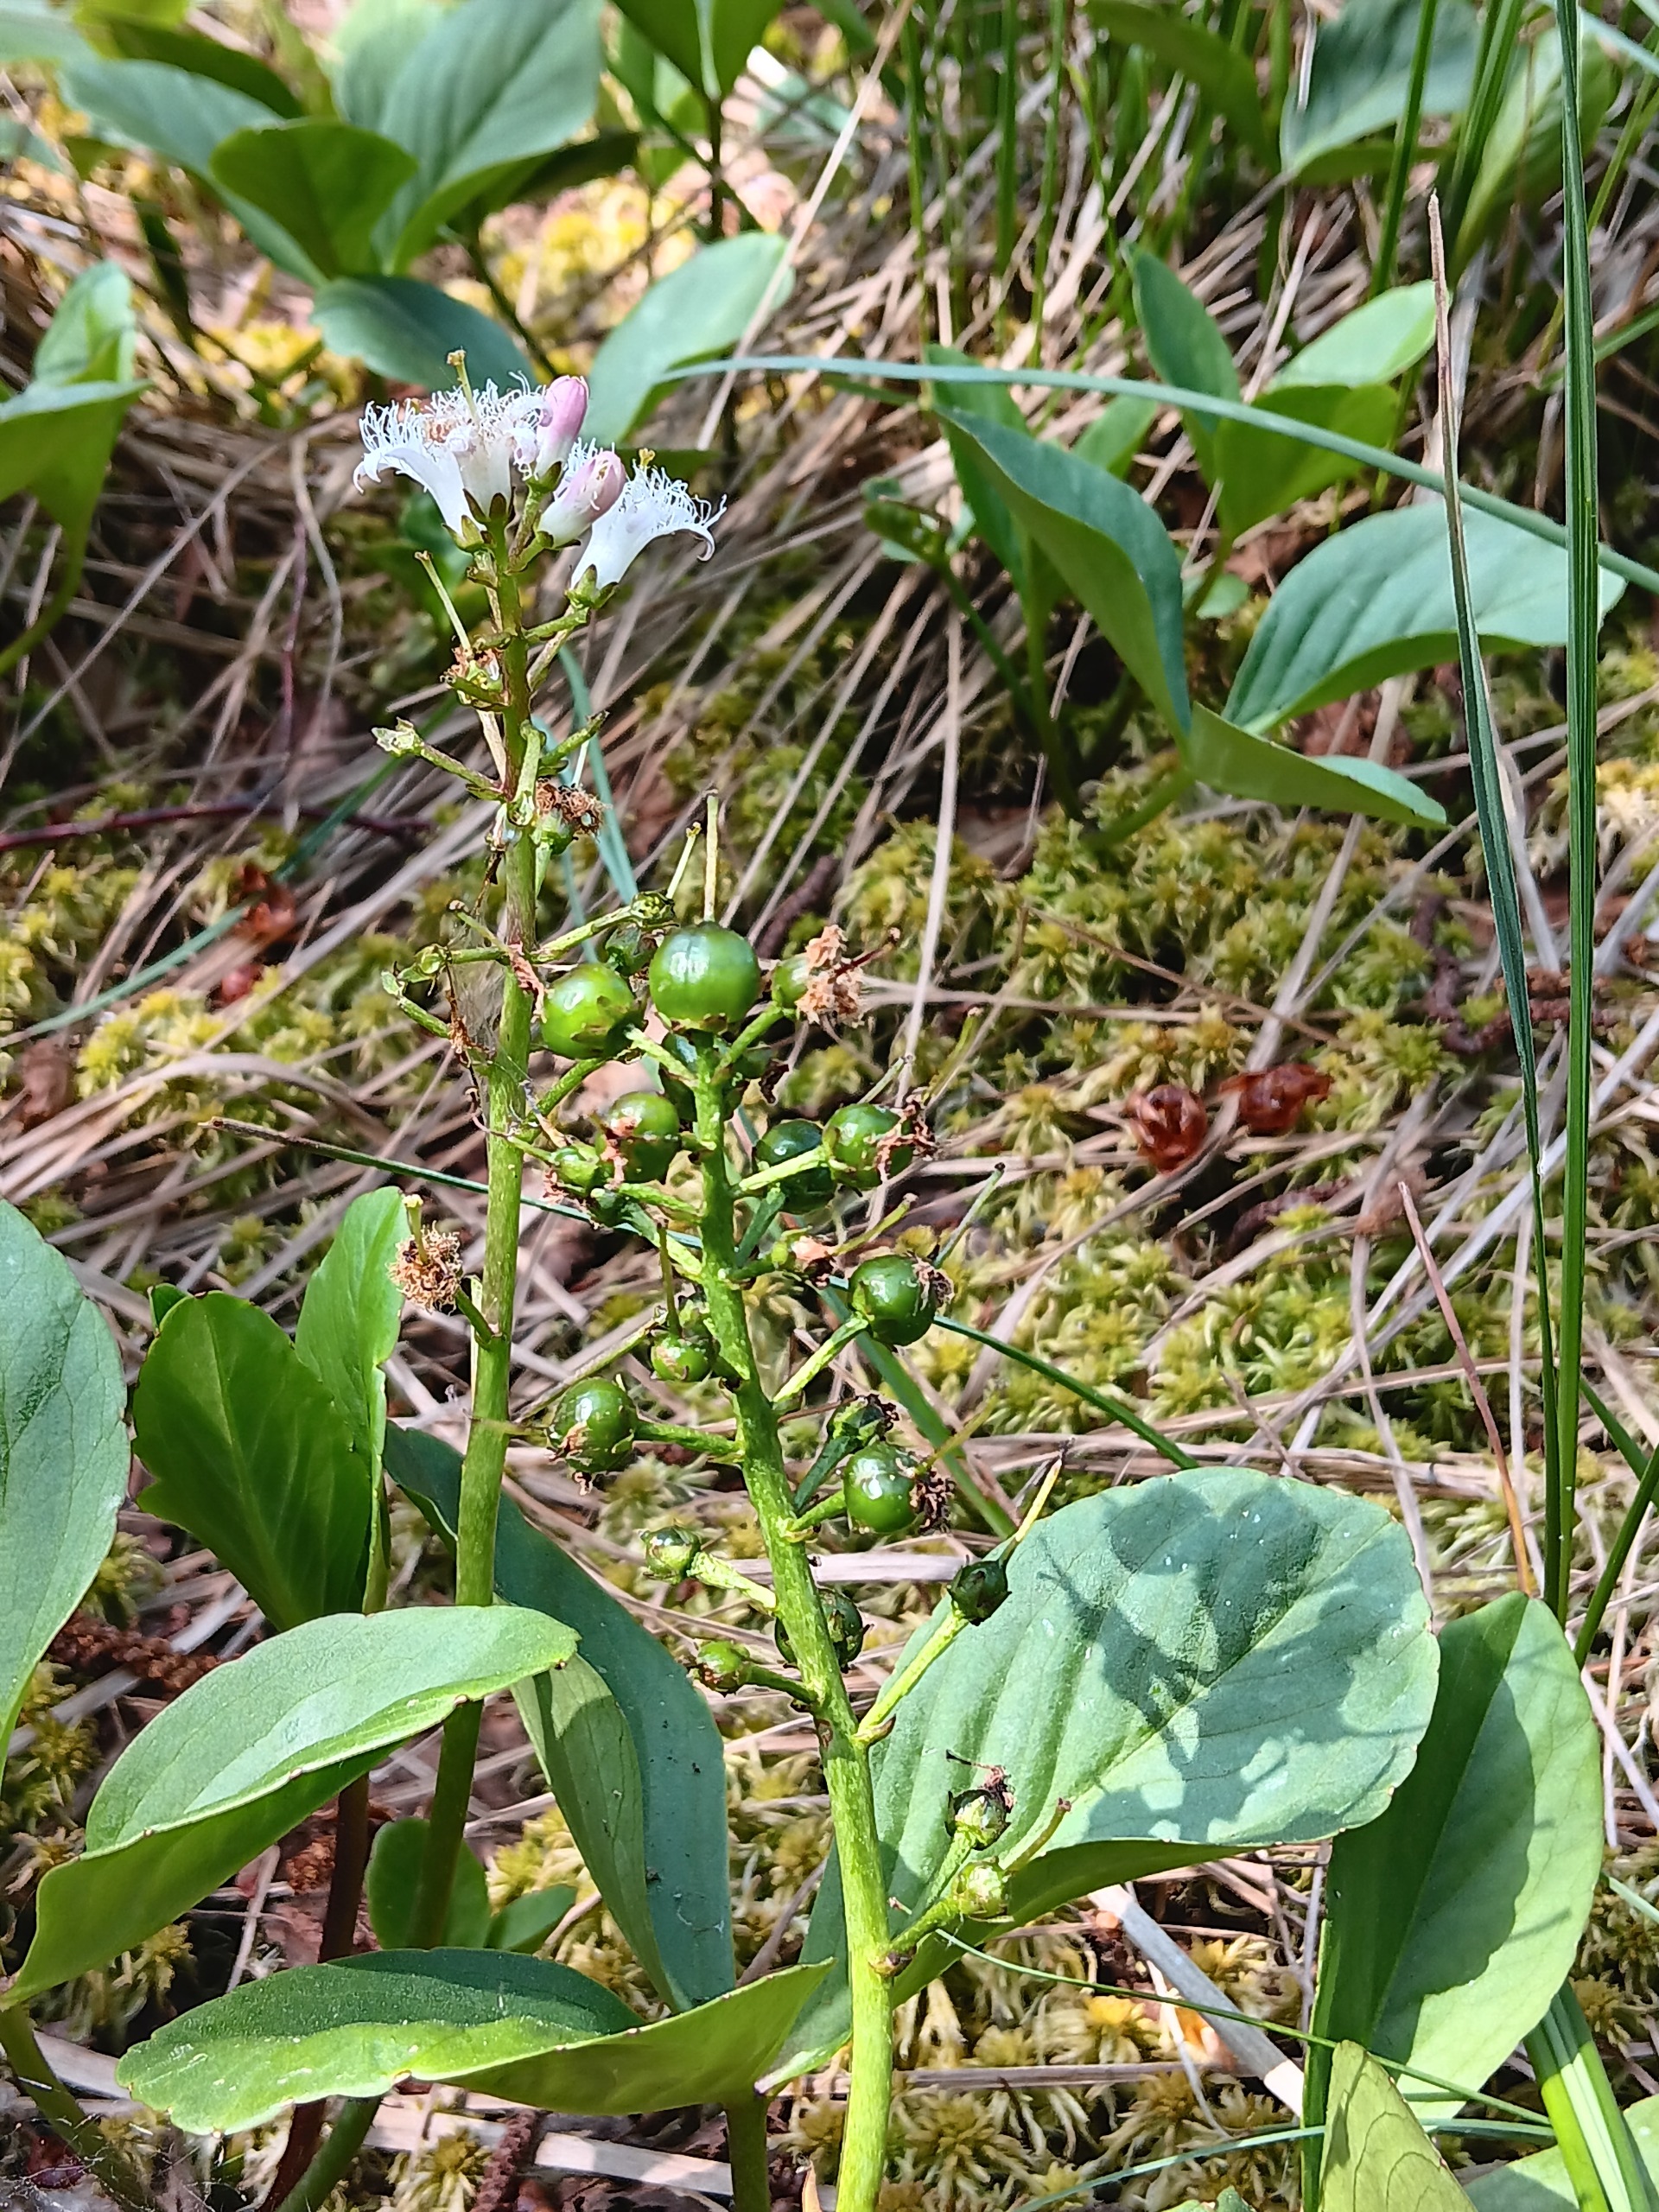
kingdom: Plantae
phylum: Tracheophyta
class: Magnoliopsida
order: Asterales
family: Menyanthaceae
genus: Menyanthes
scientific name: Menyanthes trifoliata
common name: Bukkeblad
